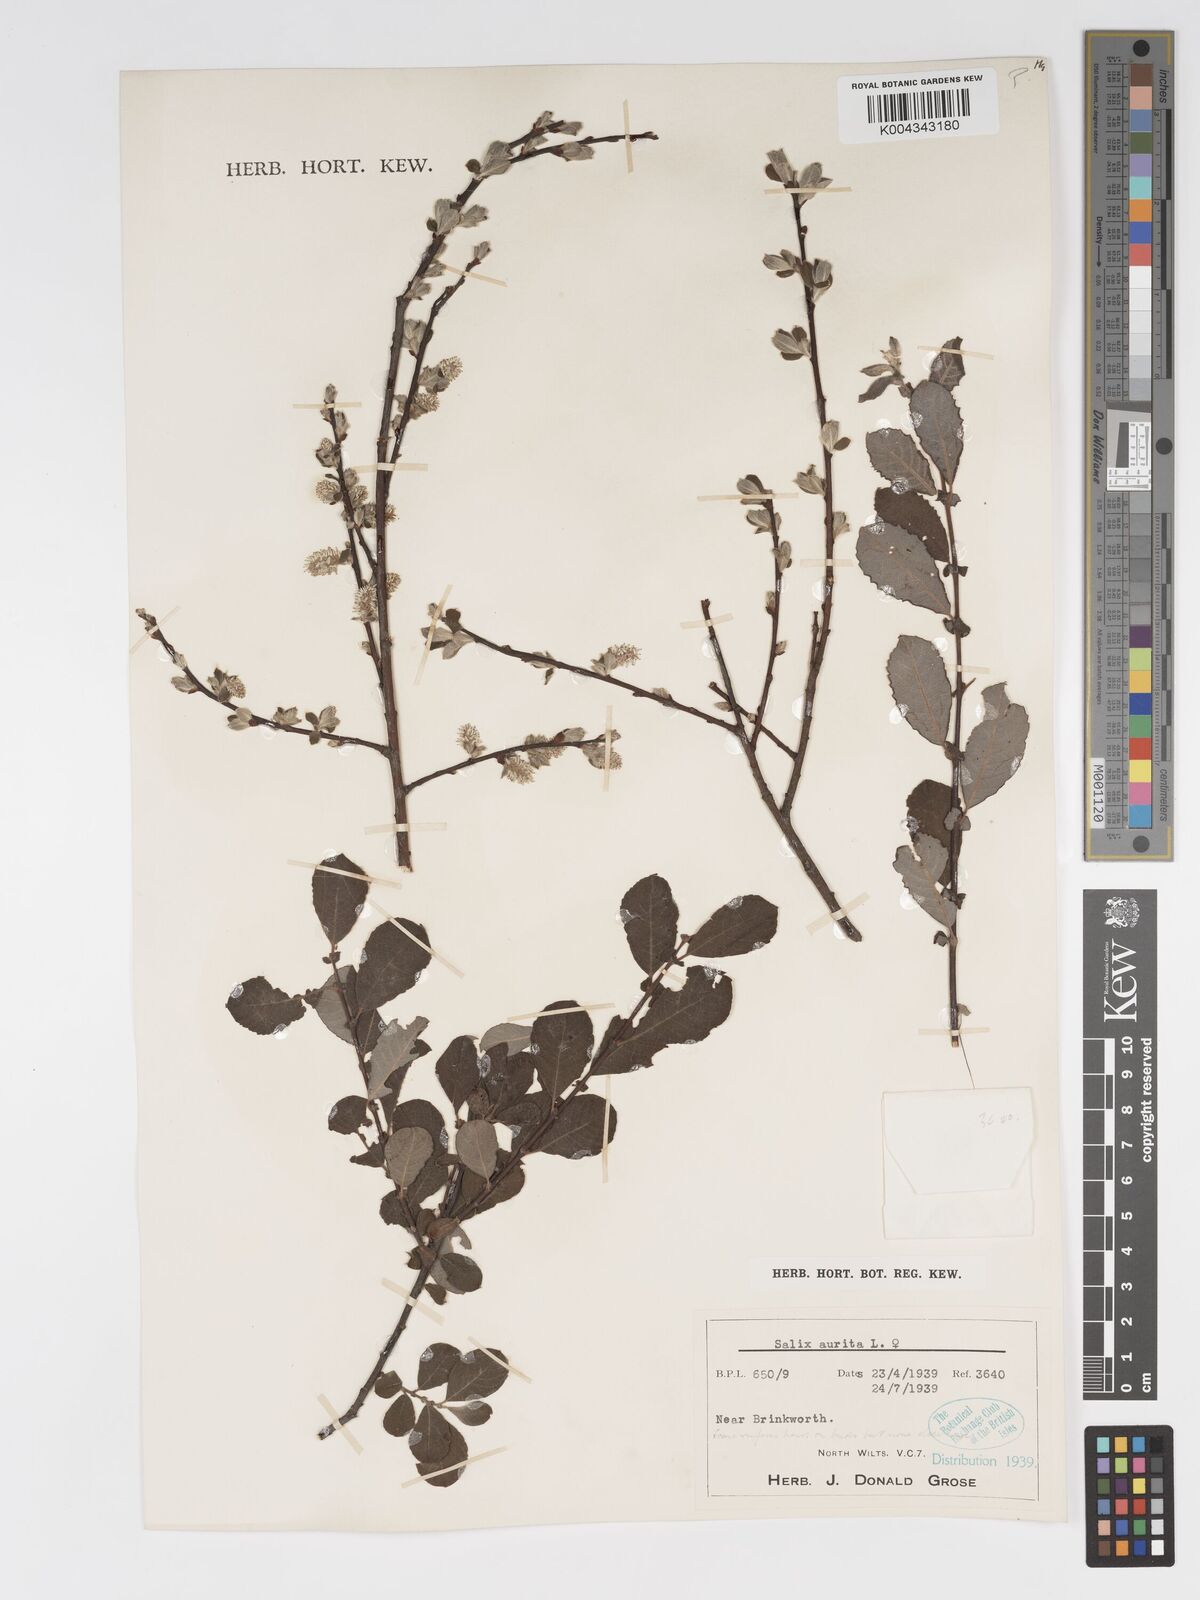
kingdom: Plantae
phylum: Tracheophyta
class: Magnoliopsida
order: Malpighiales
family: Salicaceae
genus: Salix
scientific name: Salix aurita
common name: Eared willow
